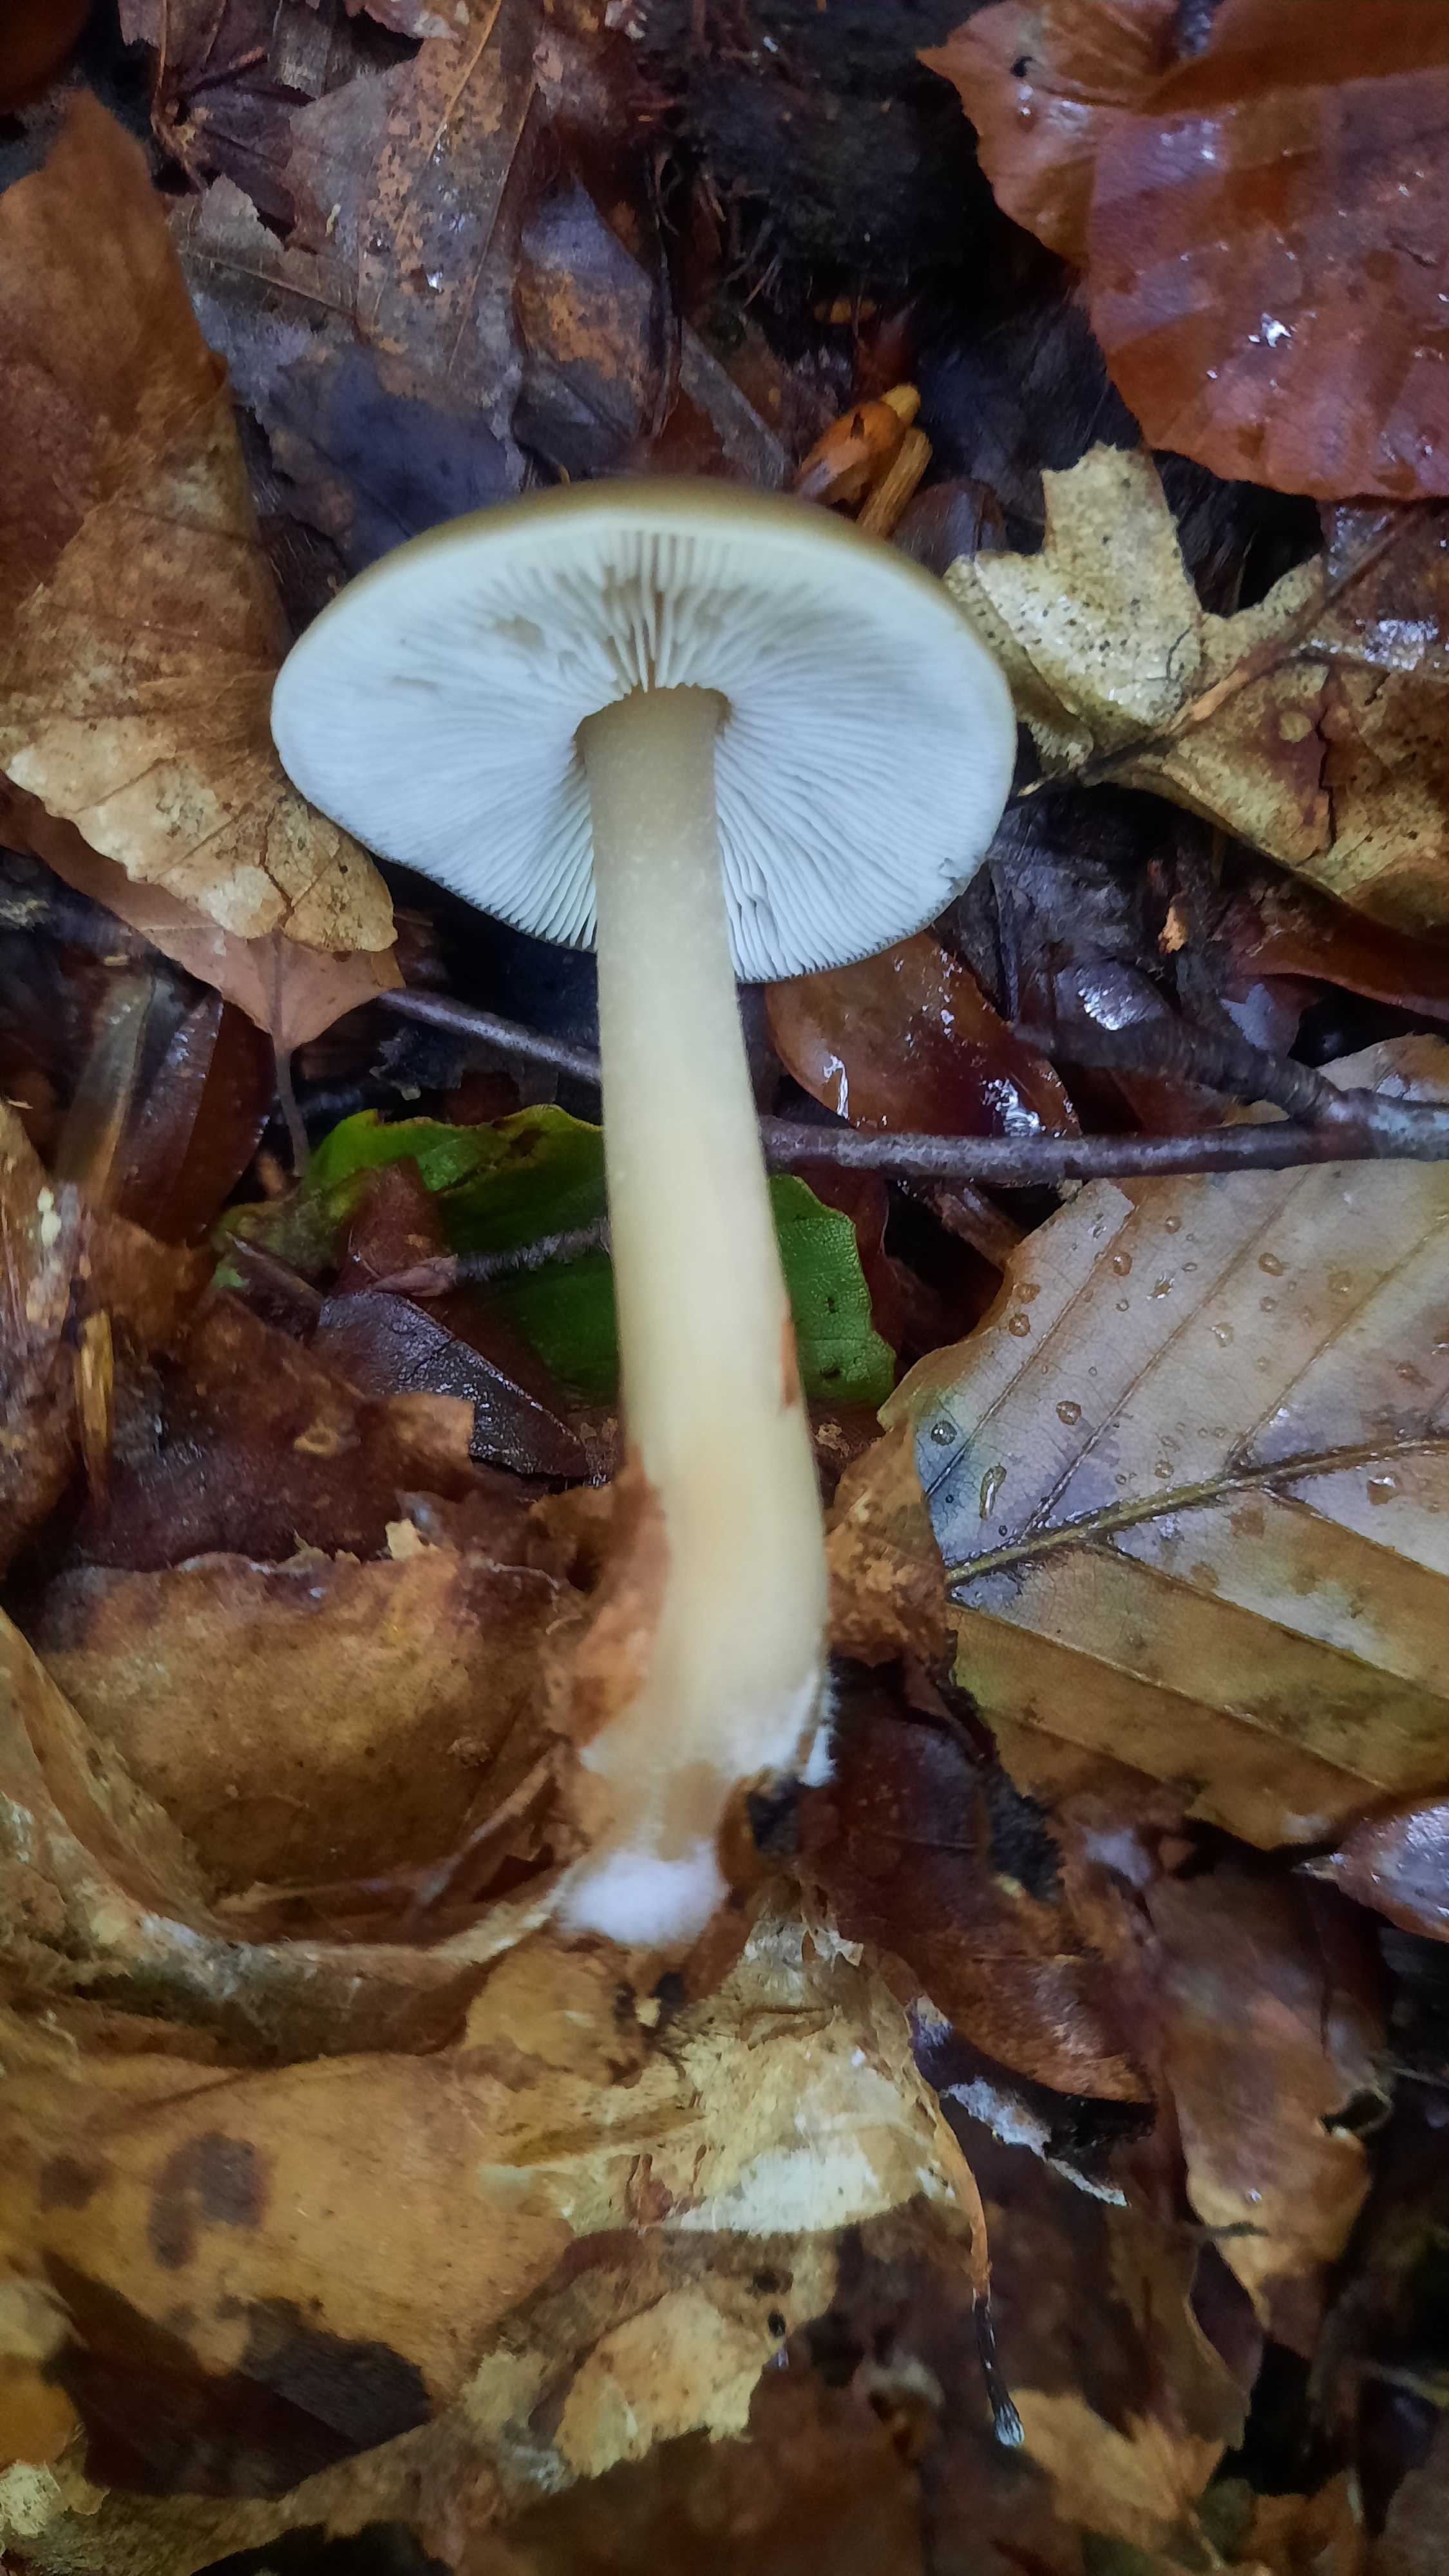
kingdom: Fungi
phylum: Basidiomycota
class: Agaricomycetes
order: Agaricales
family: Omphalotaceae
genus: Rhodocollybia
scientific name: Rhodocollybia asema
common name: horngrå fladhat
